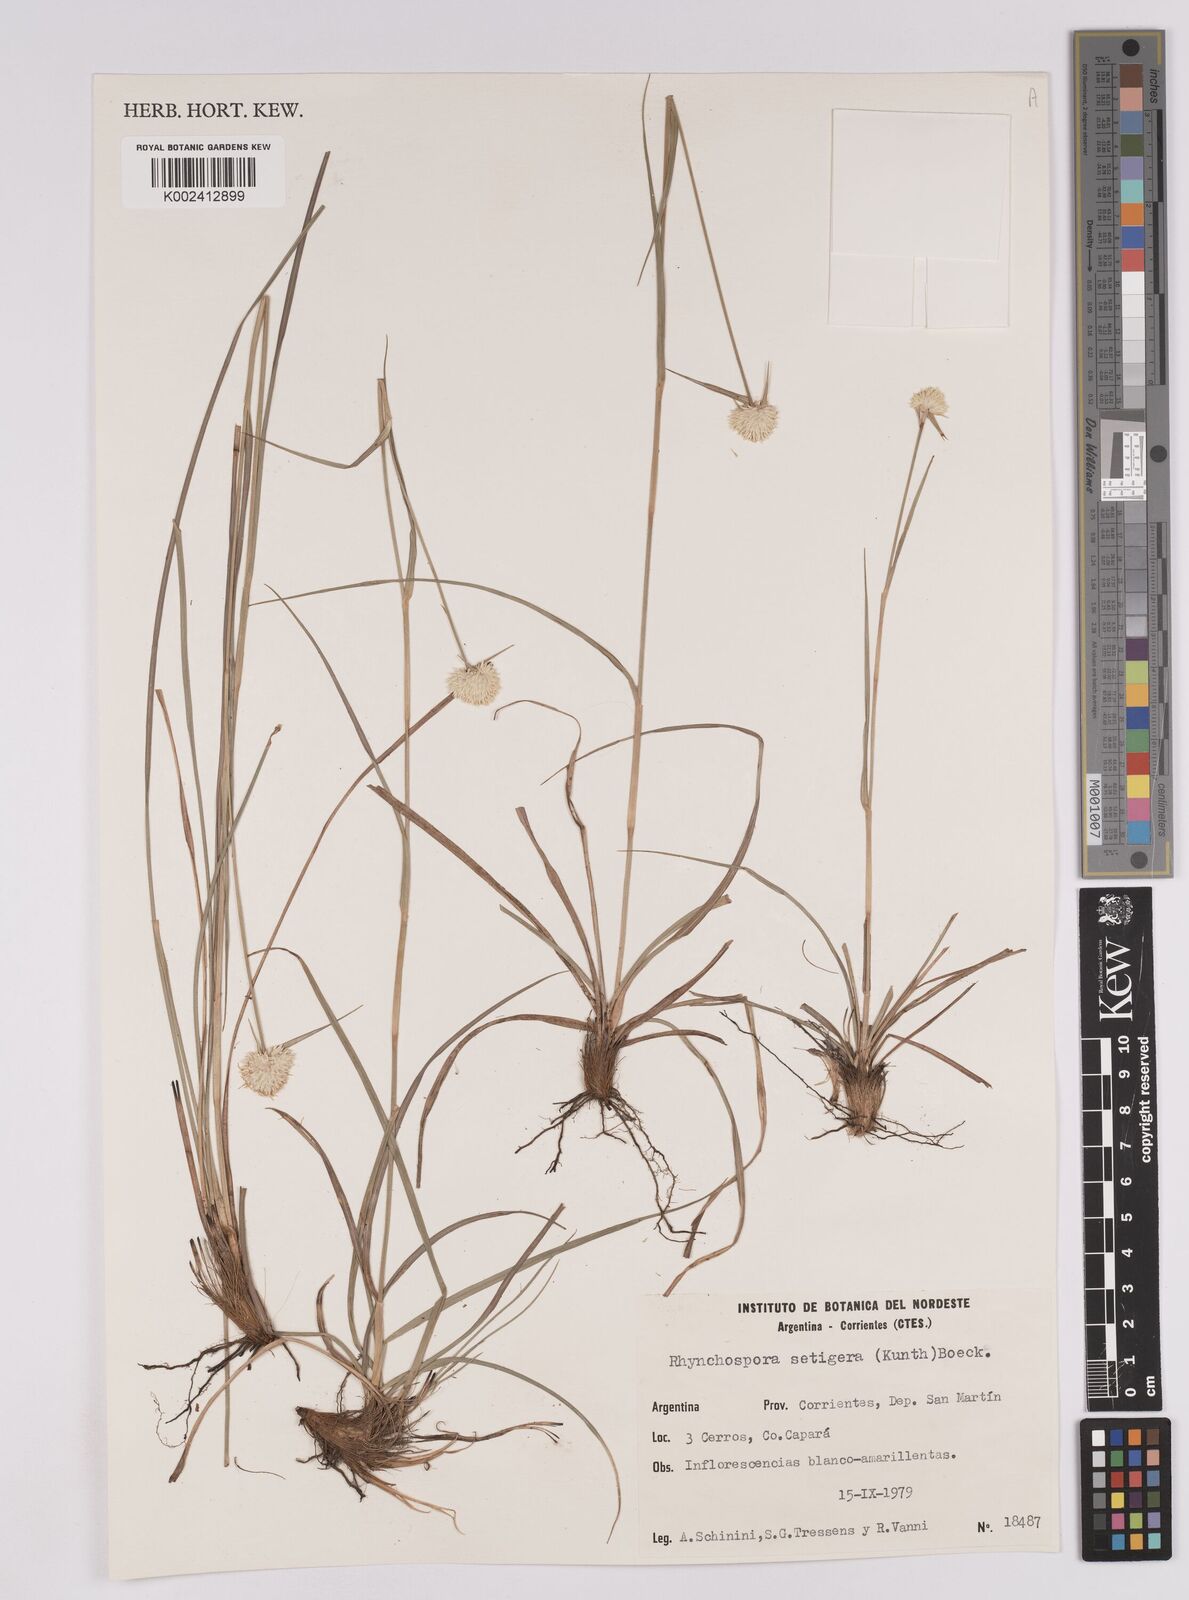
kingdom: Plantae
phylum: Tracheophyta
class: Liliopsida
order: Poales
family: Cyperaceae
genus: Rhynchospora
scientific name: Rhynchospora setigera
